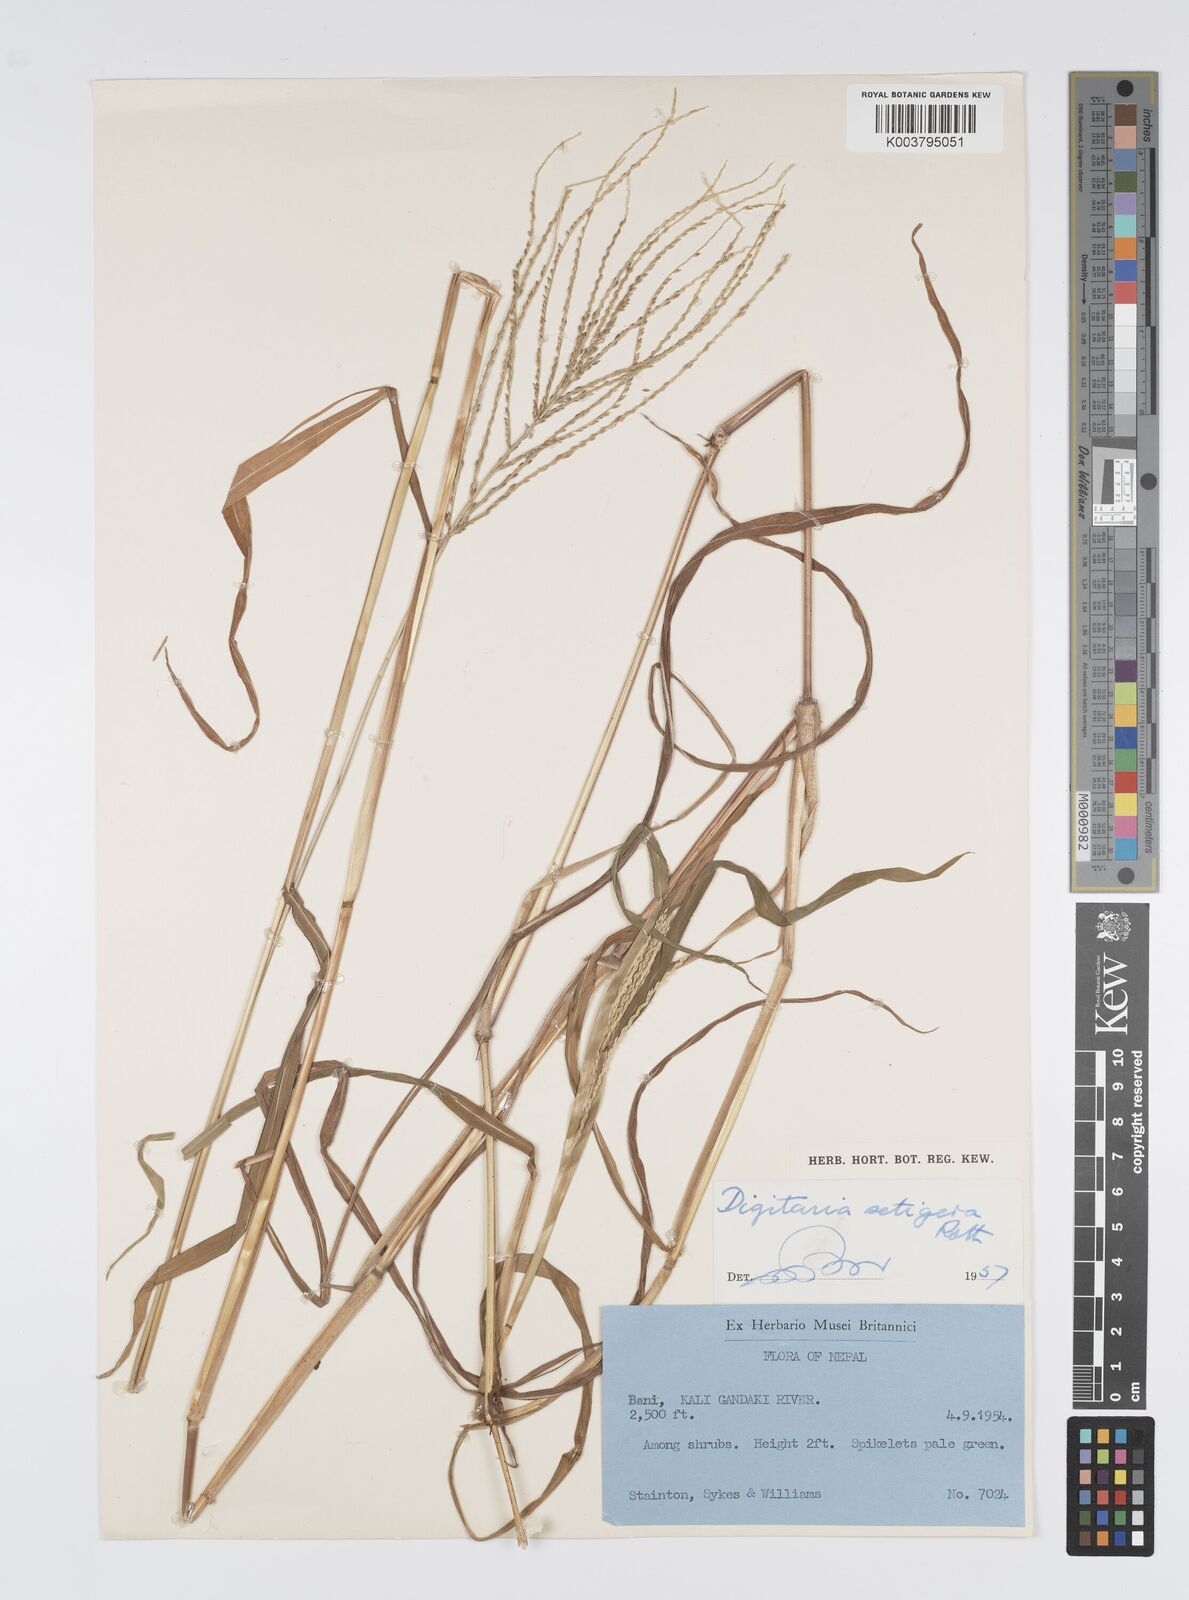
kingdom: Plantae
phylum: Tracheophyta
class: Liliopsida
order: Poales
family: Poaceae
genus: Digitaria
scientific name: Digitaria setigera
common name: East indian crabgrass
